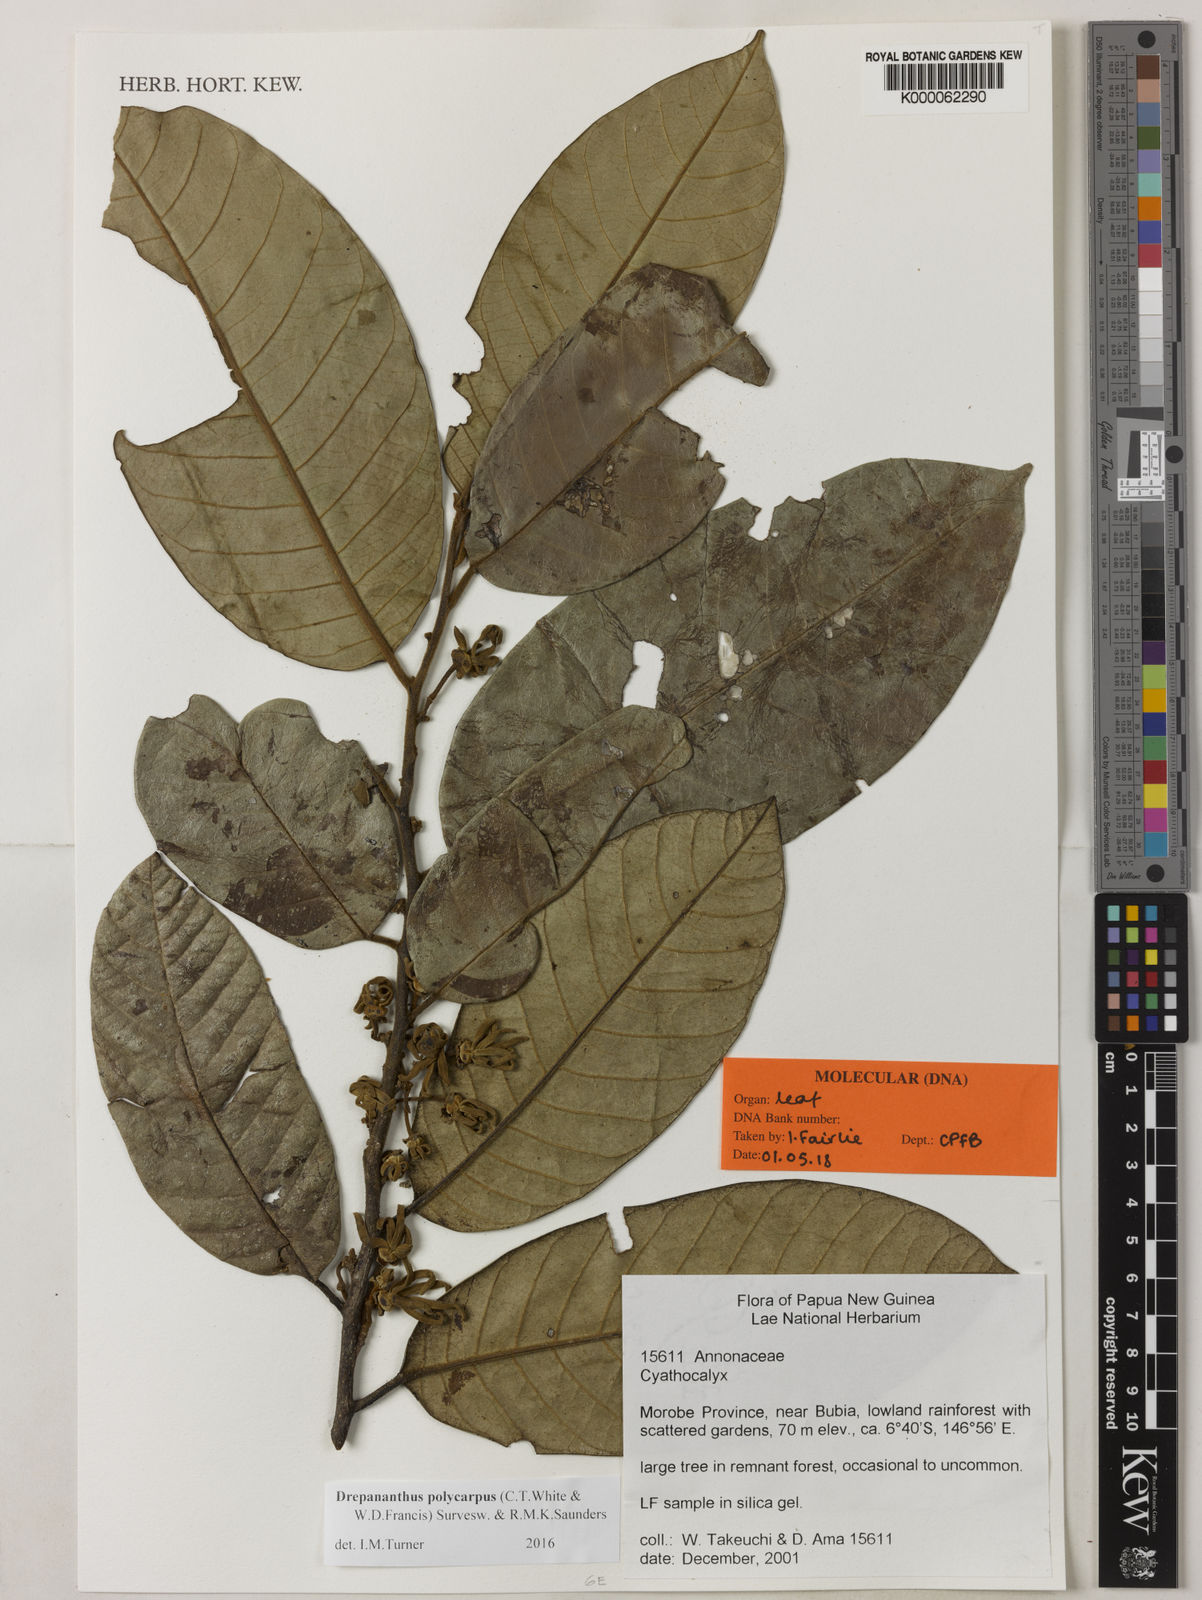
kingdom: Plantae
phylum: Tracheophyta
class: Magnoliopsida
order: Magnoliales
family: Annonaceae
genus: Drepananthus
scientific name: Drepananthus
